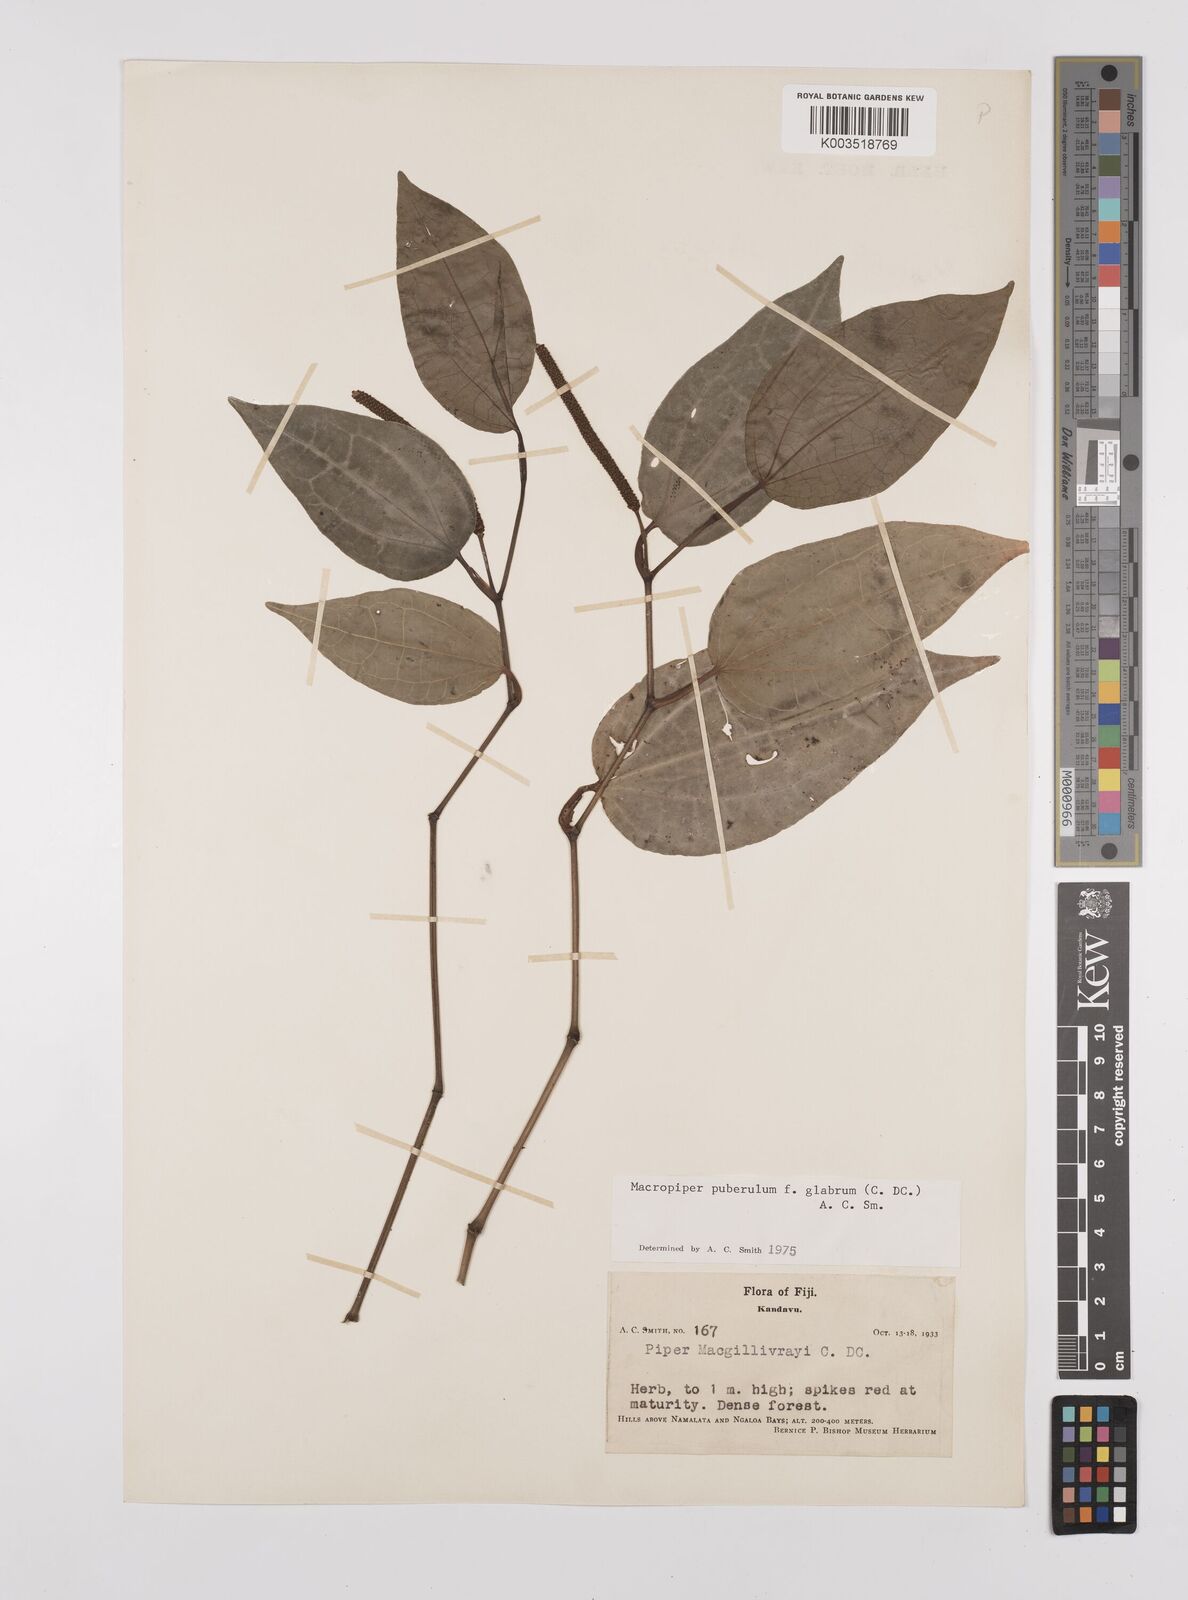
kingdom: Plantae
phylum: Tracheophyta
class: Magnoliopsida
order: Piperales
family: Piperaceae
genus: Macropiper
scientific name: Macropiper puberulum
